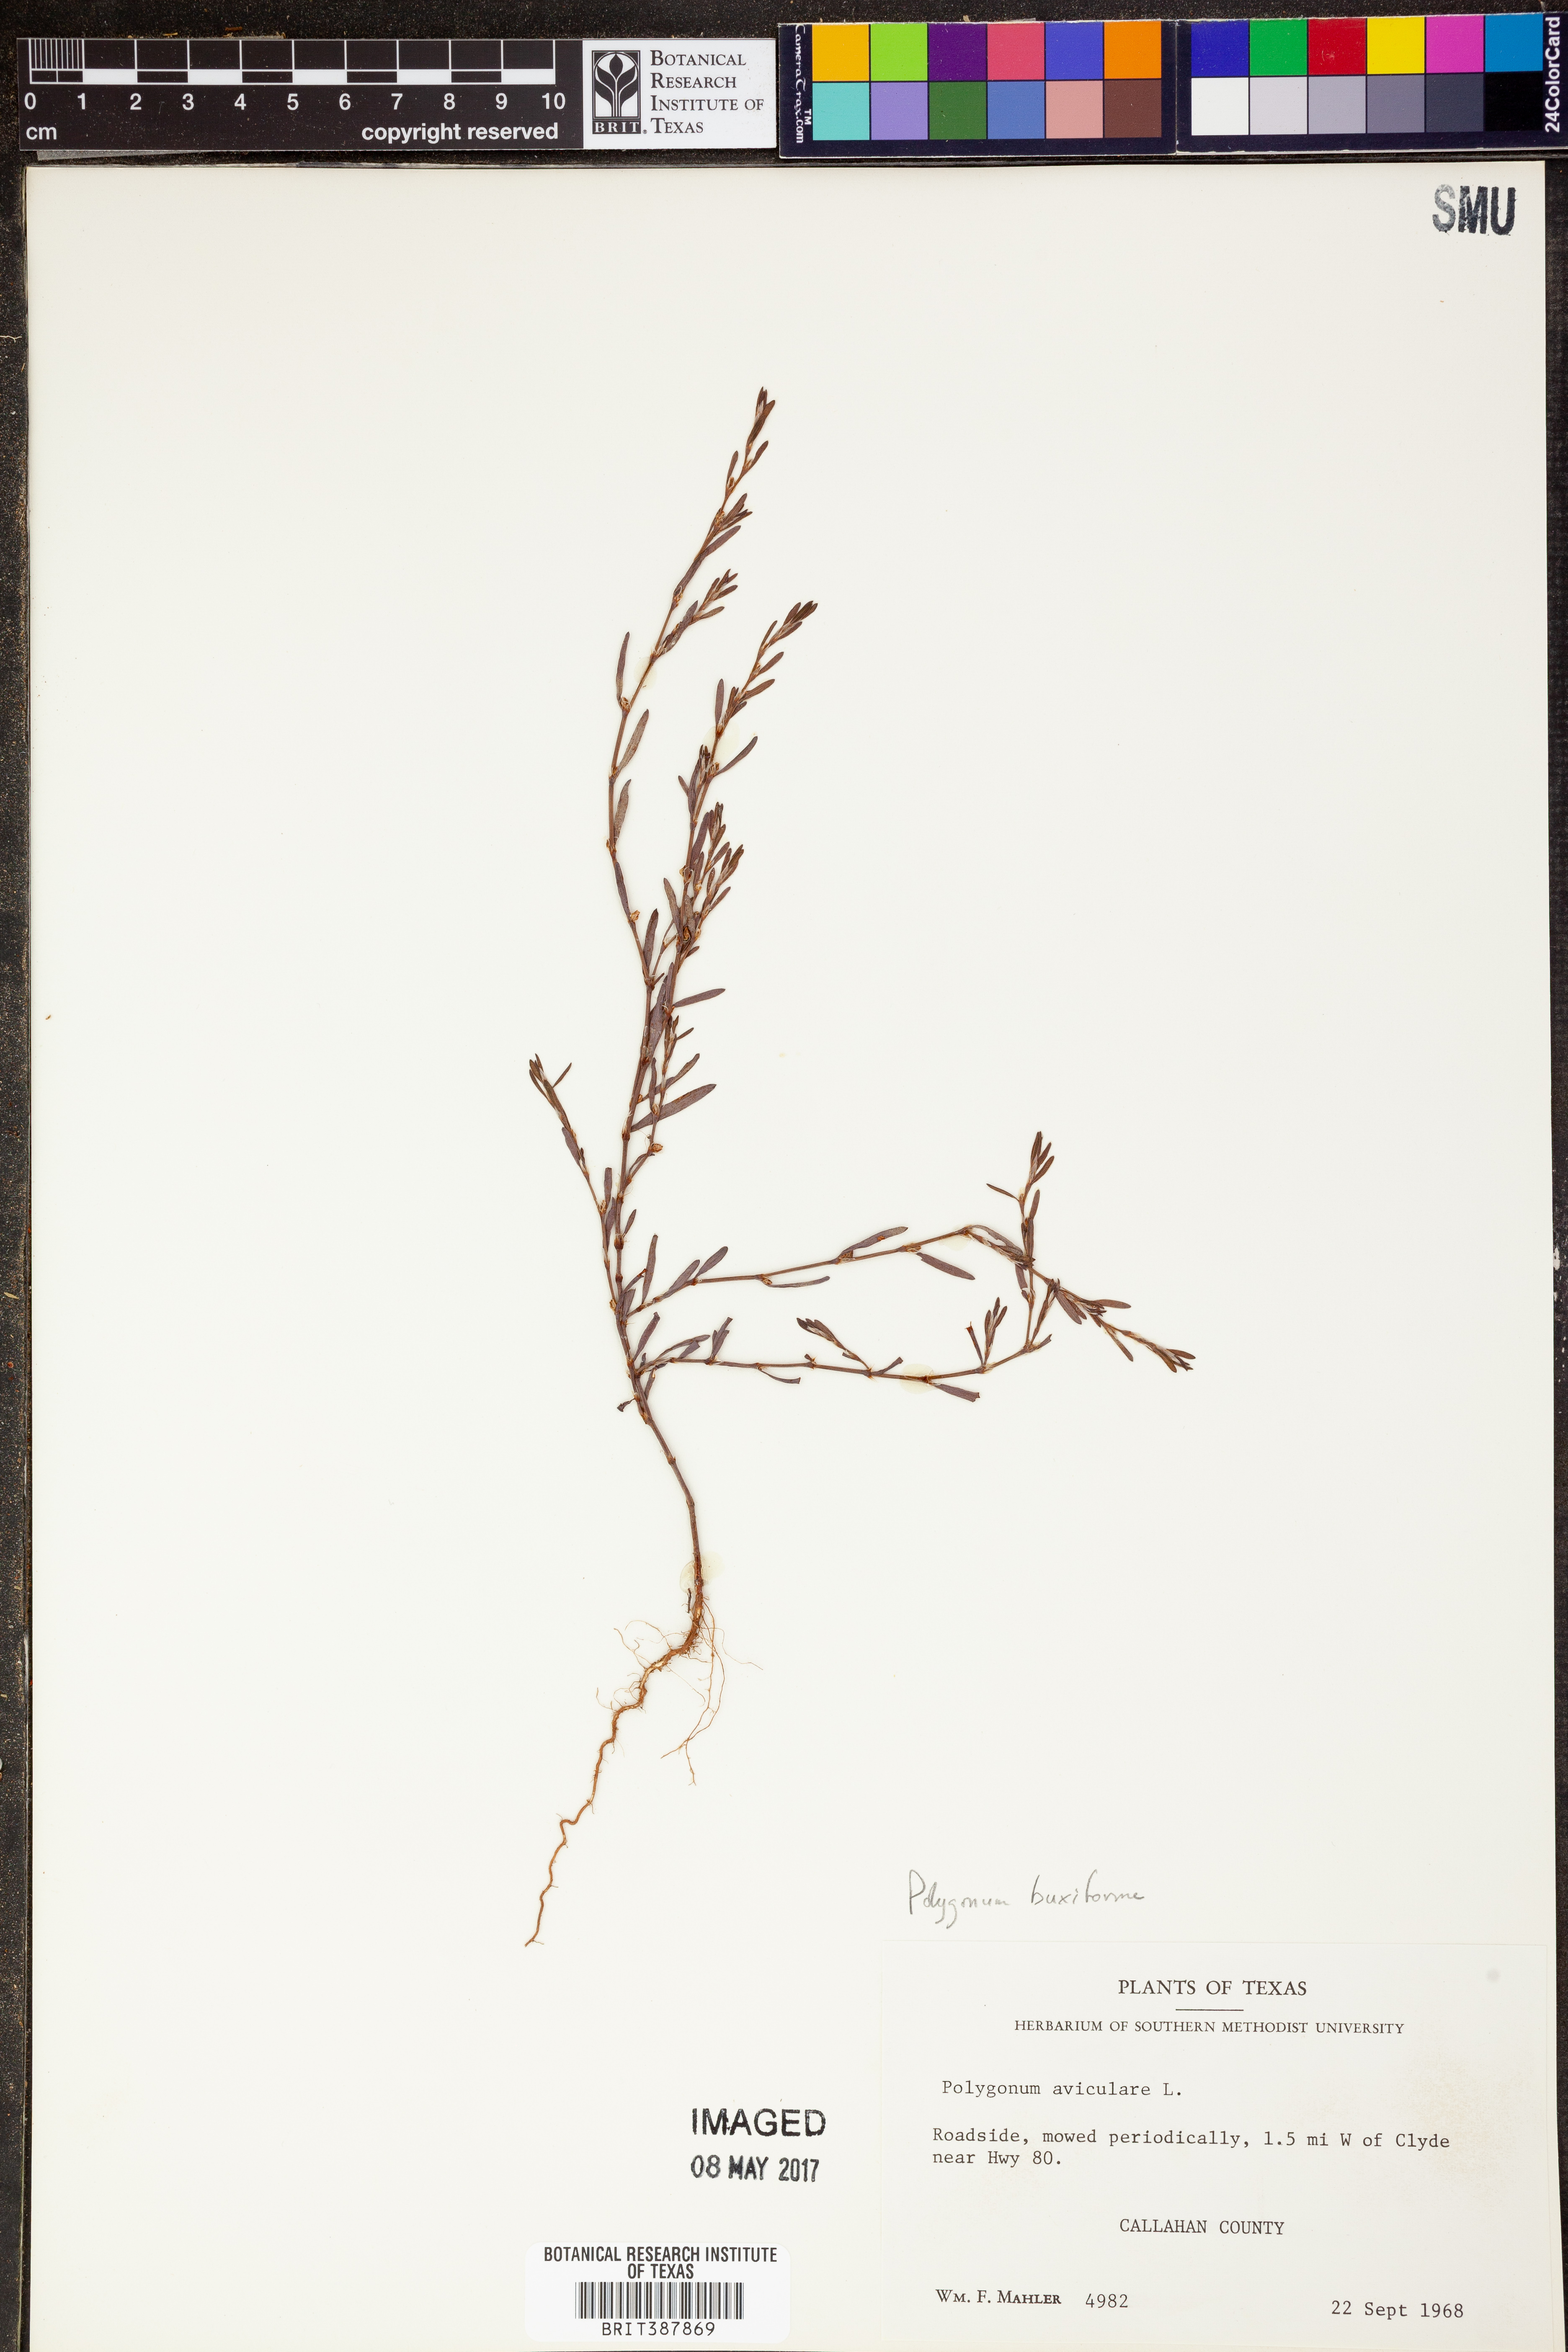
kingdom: Plantae
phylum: Tracheophyta
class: Magnoliopsida
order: Caryophyllales
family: Polygonaceae
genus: Polygonum
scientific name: Polygonum aviculare
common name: Prostrate knotweed
